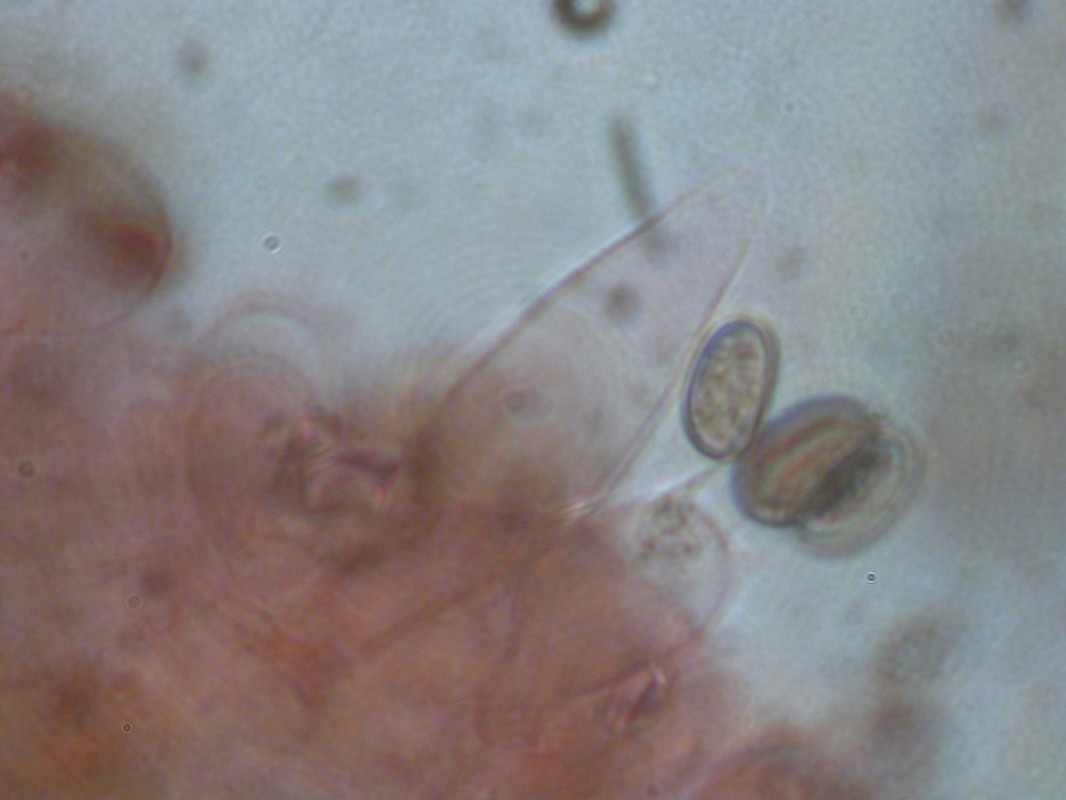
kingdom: Fungi
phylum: Basidiomycota
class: Agaricomycetes
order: Agaricales
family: Psathyrellaceae
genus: Psathyrella
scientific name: Psathyrella rubiginosa
